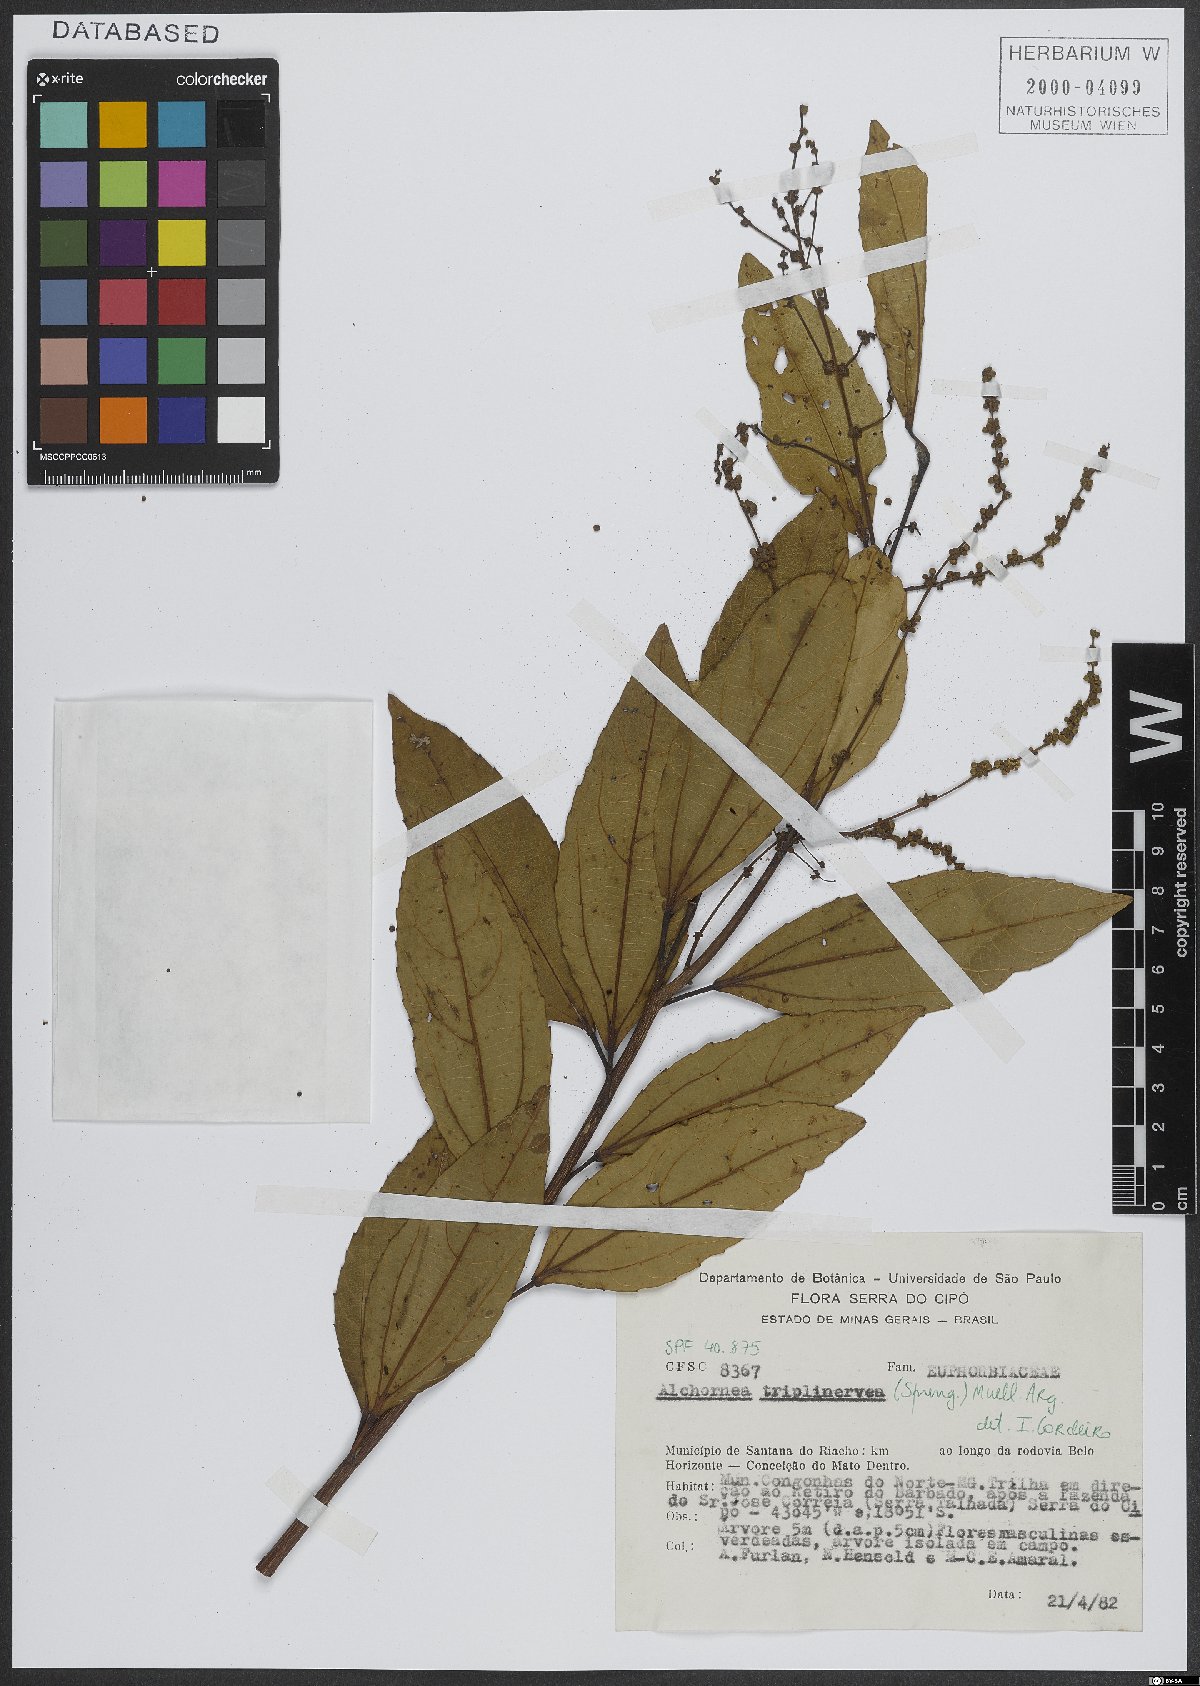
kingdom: Plantae
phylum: Tracheophyta
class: Magnoliopsida
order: Malpighiales
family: Euphorbiaceae
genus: Alchornea
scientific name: Alchornea triplinervia
